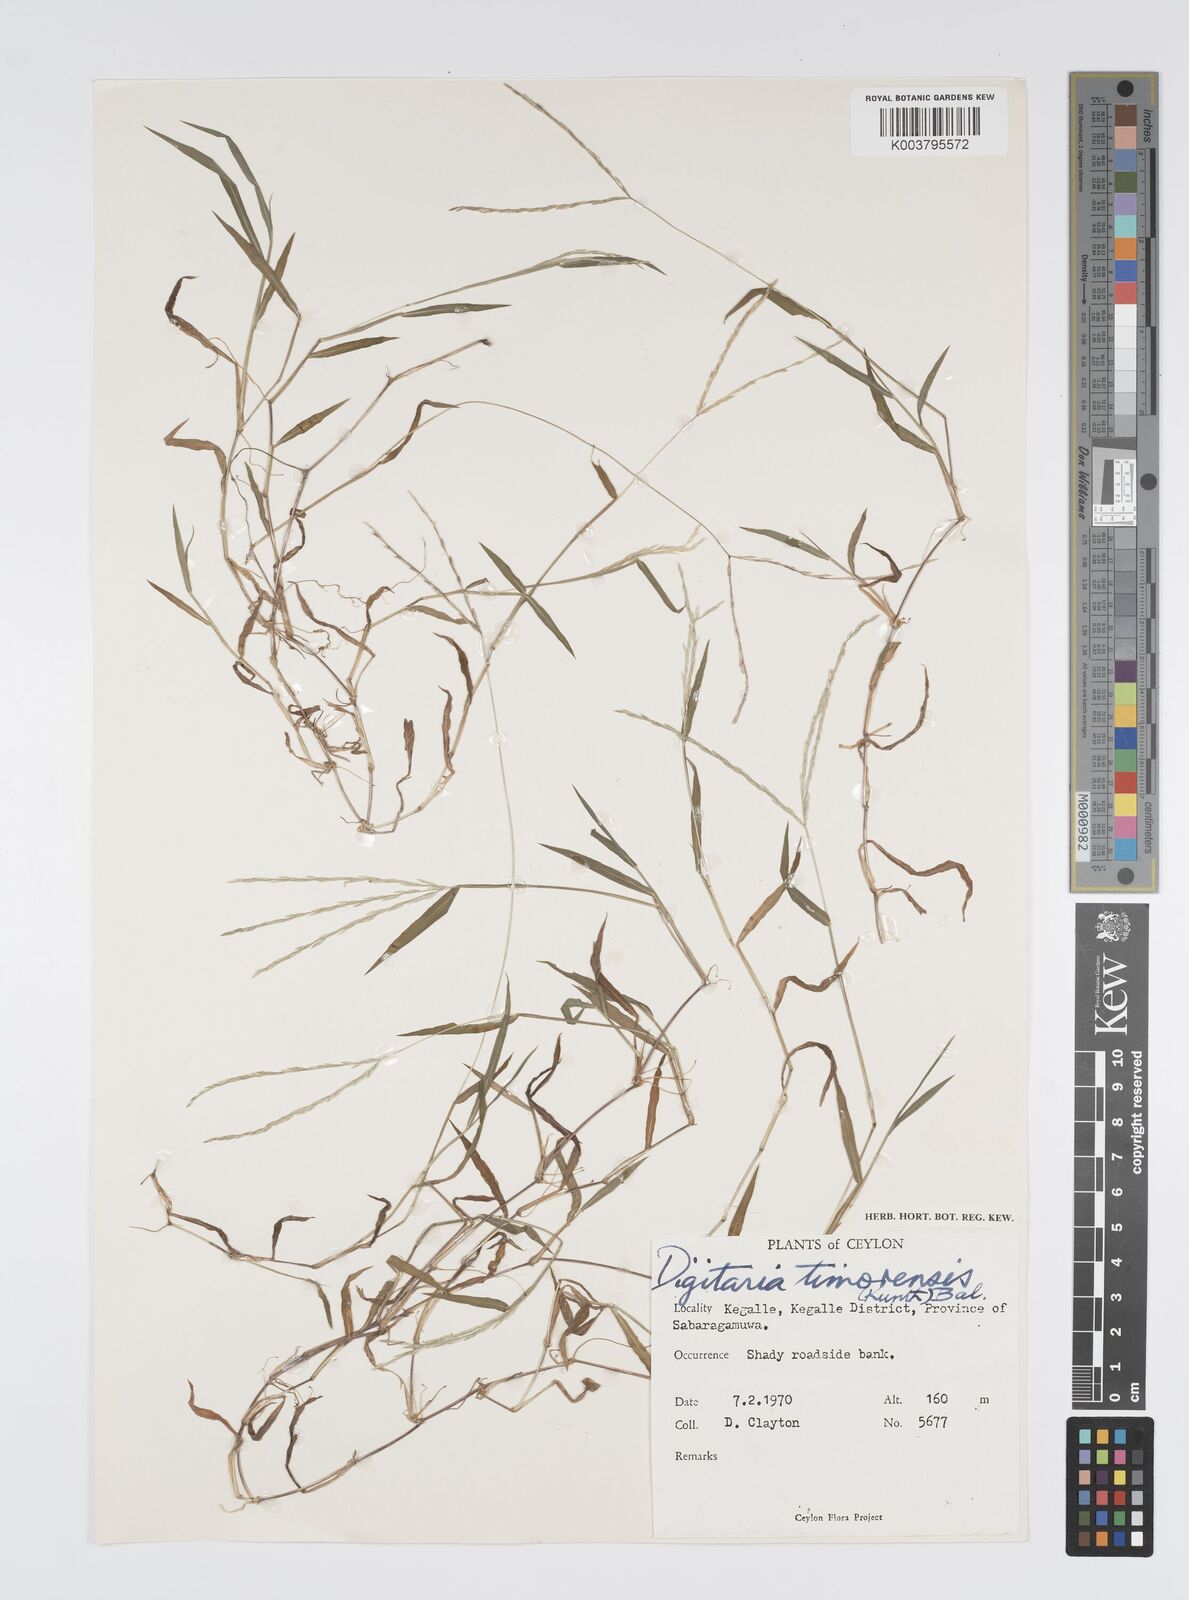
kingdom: Plantae
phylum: Tracheophyta
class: Liliopsida
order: Poales
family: Poaceae
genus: Digitaria
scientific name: Digitaria radicosa
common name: Trailing crabgrass
